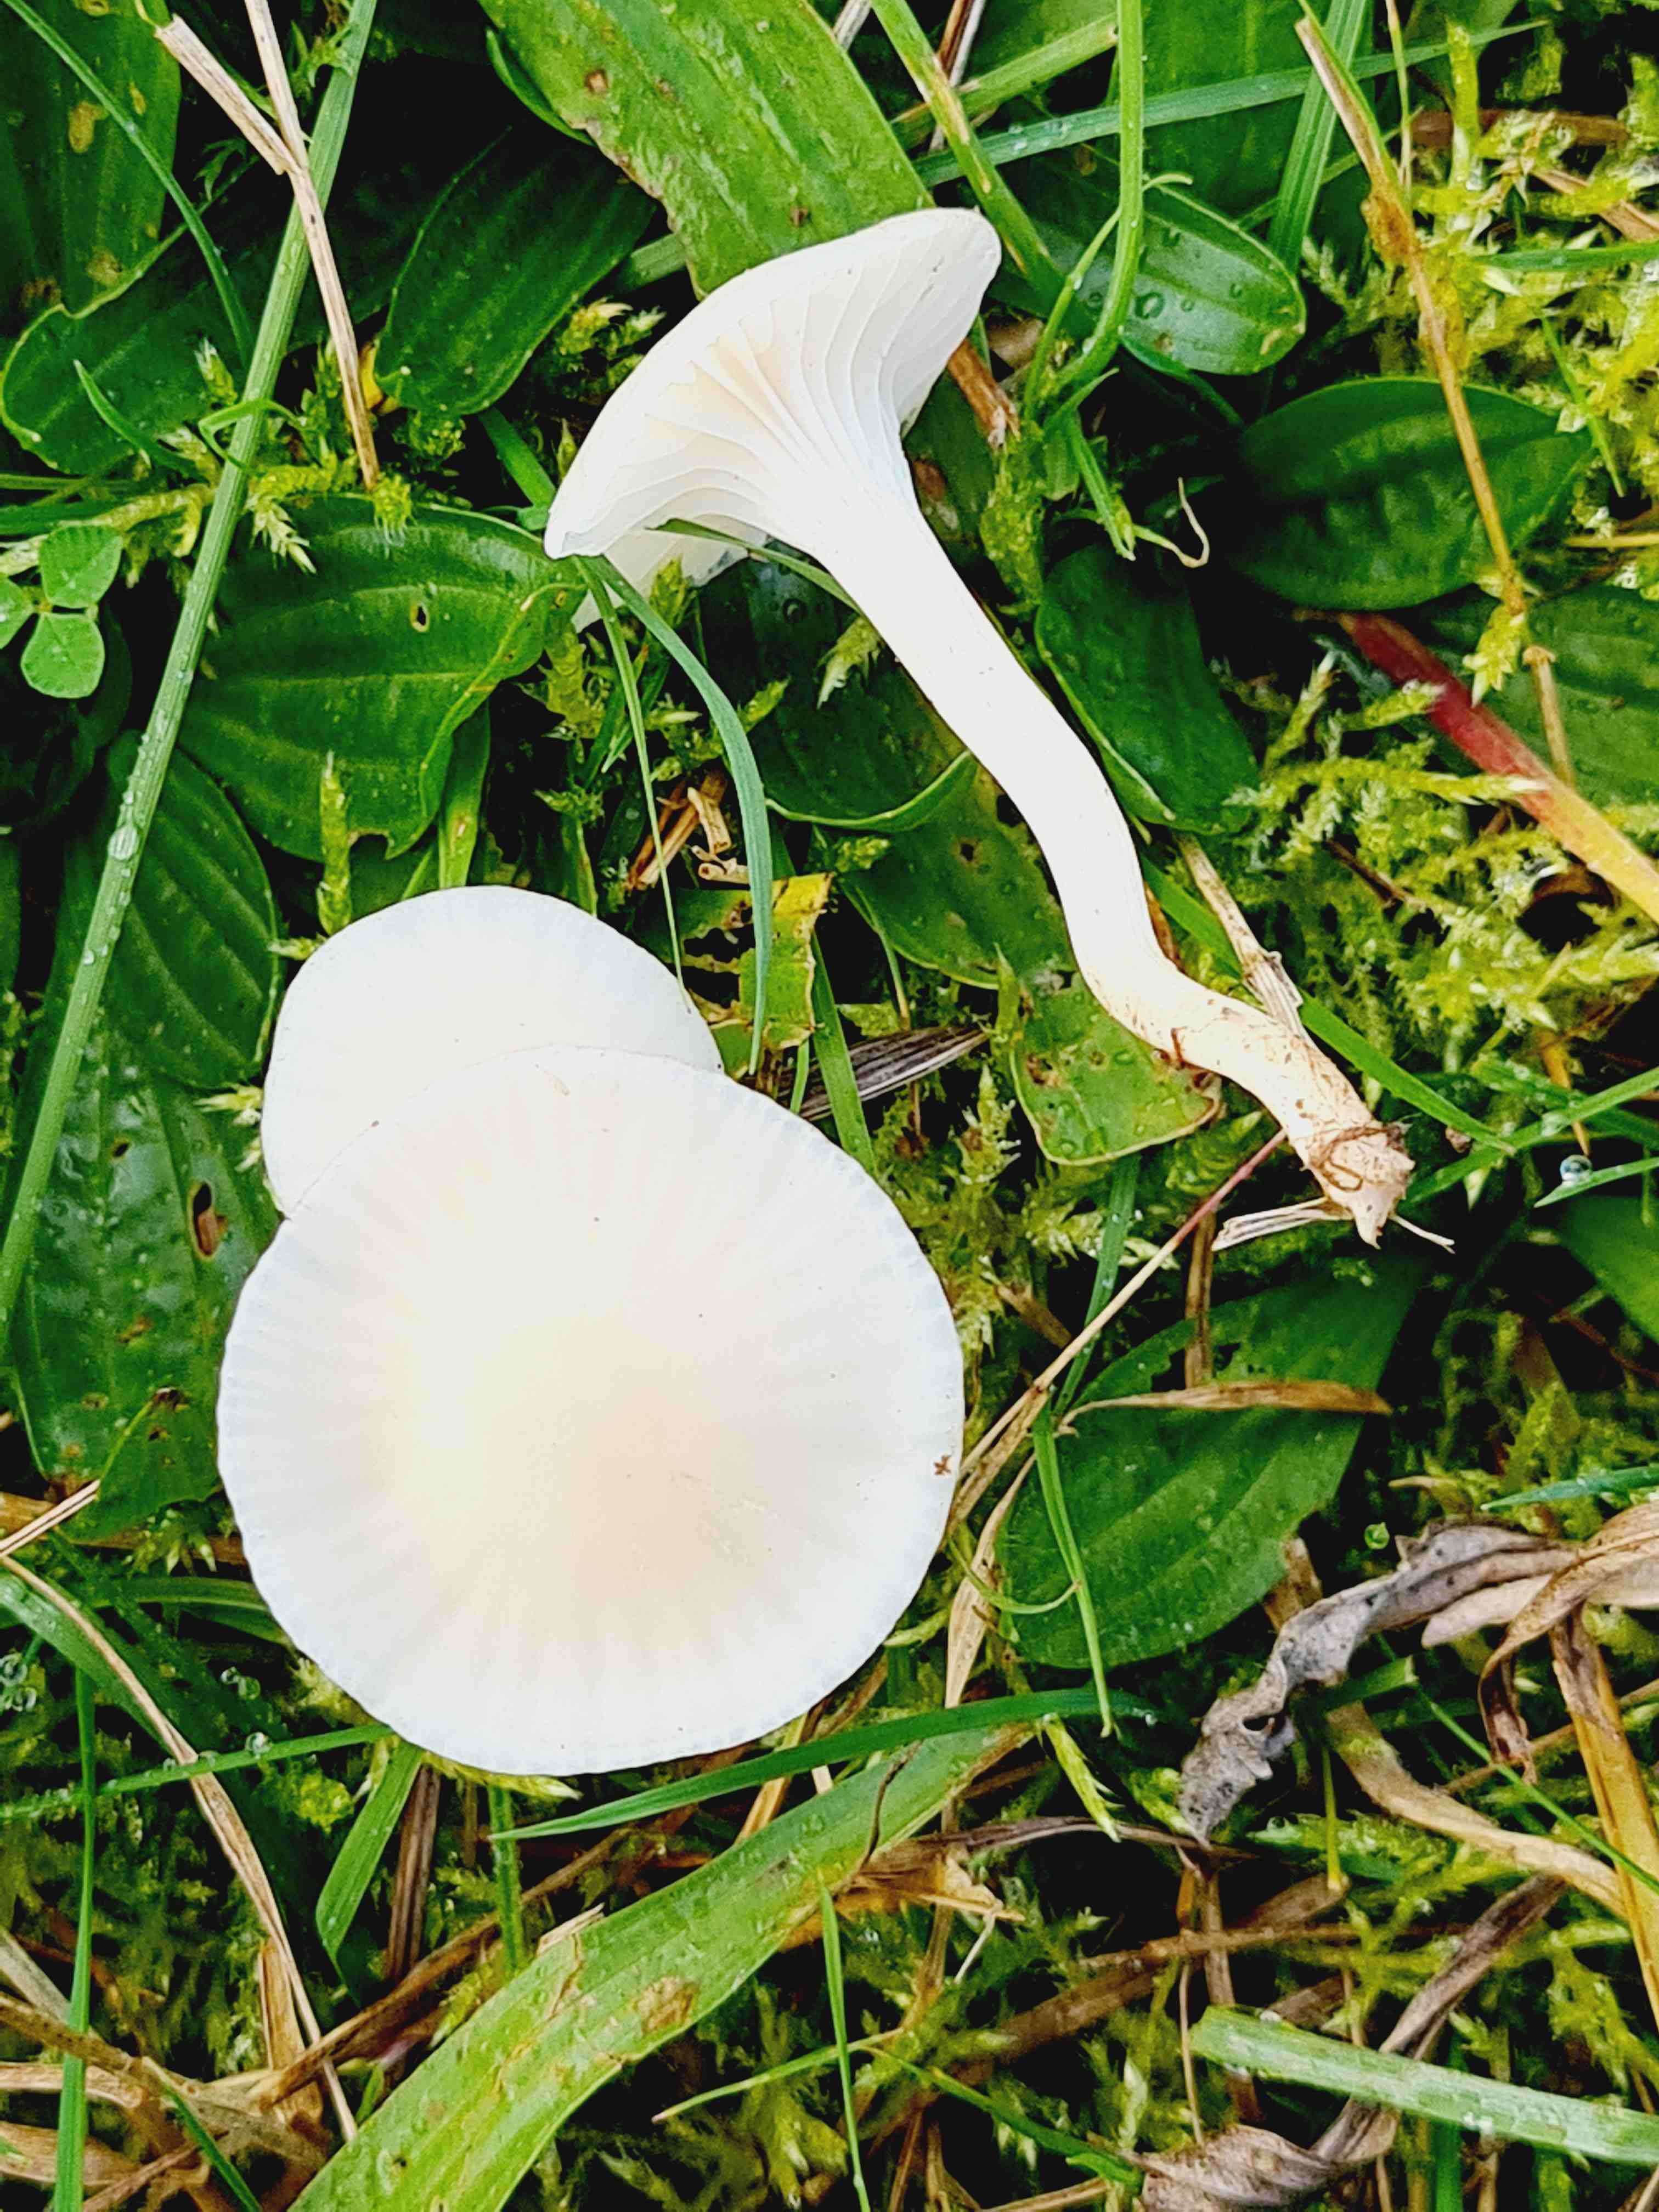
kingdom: Fungi
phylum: Basidiomycota
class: Agaricomycetes
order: Agaricales
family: Hygrophoraceae
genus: Cuphophyllus
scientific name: Cuphophyllus virgineus
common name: snehvid vokshat
